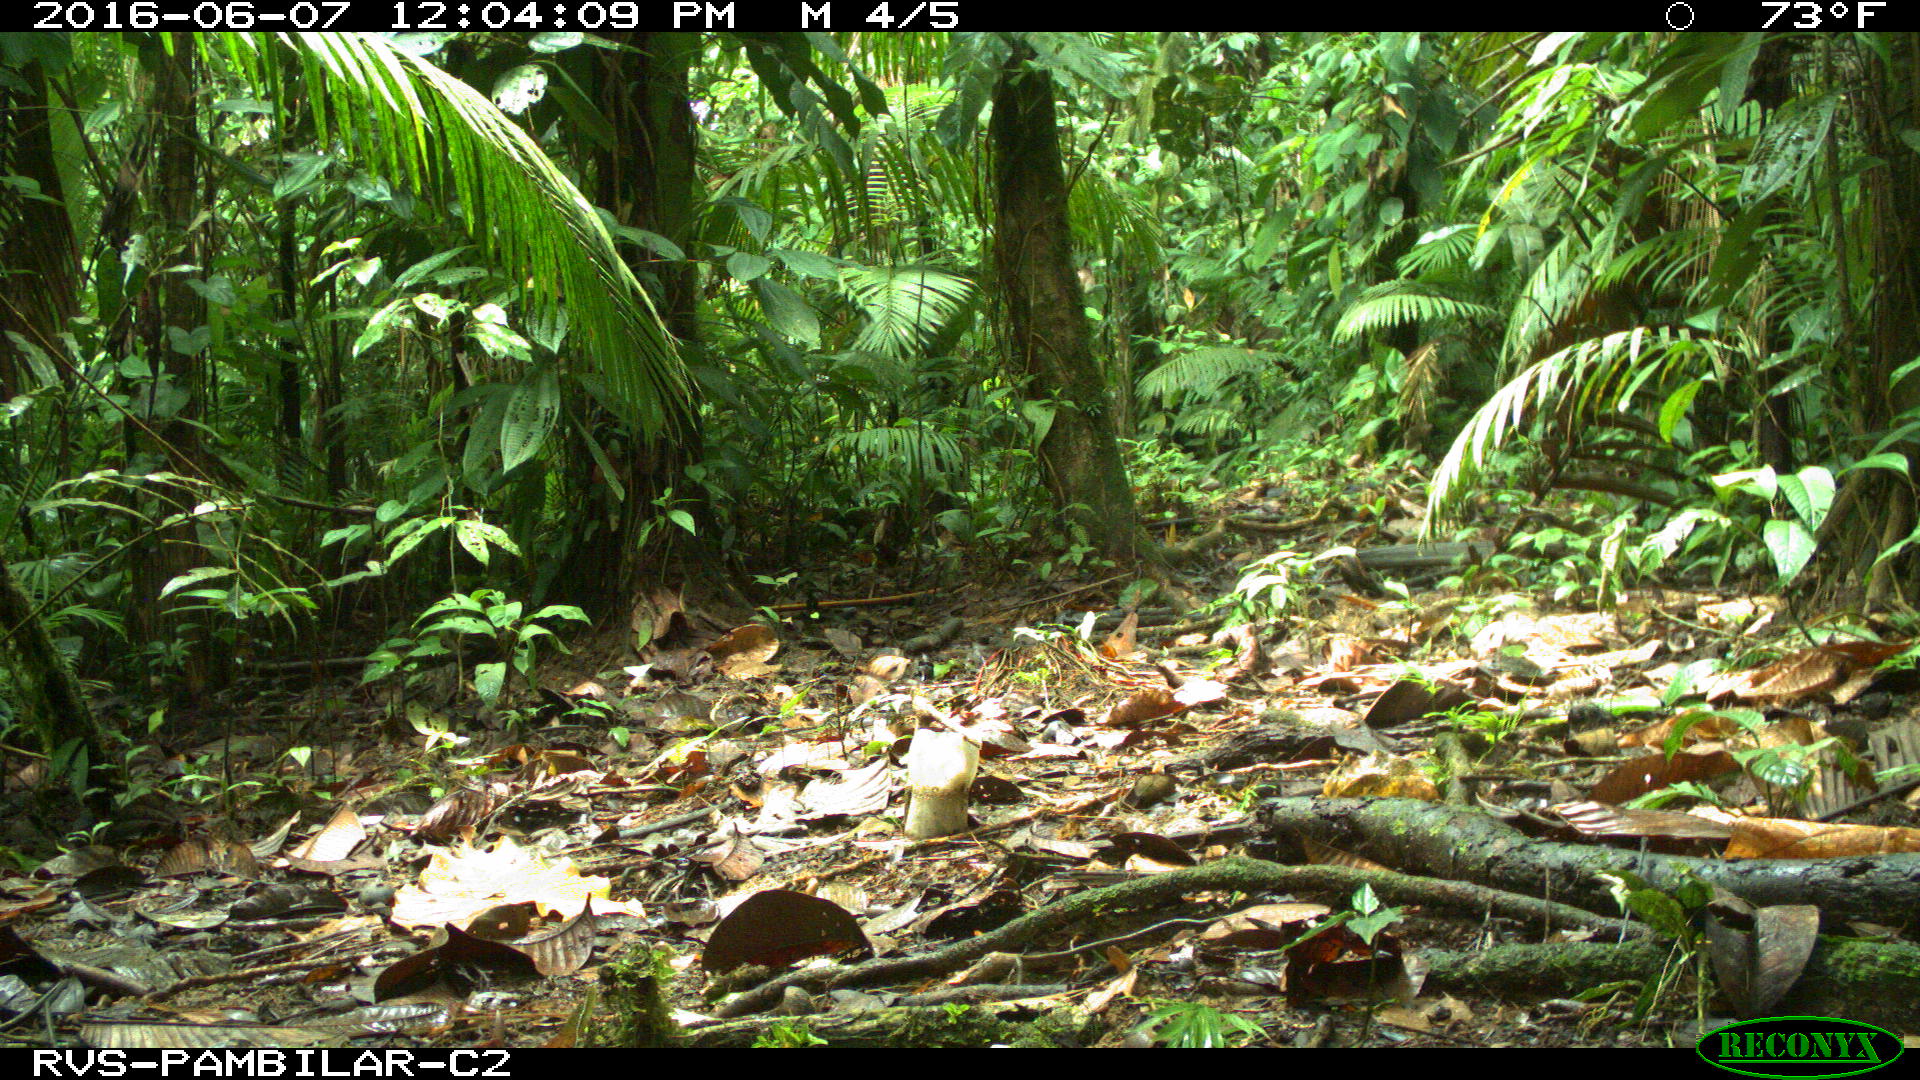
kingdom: Animalia
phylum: Chordata
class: Mammalia
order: Rodentia
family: Dasyproctidae
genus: Dasyprocta
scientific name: Dasyprocta punctata
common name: Central american agouti
